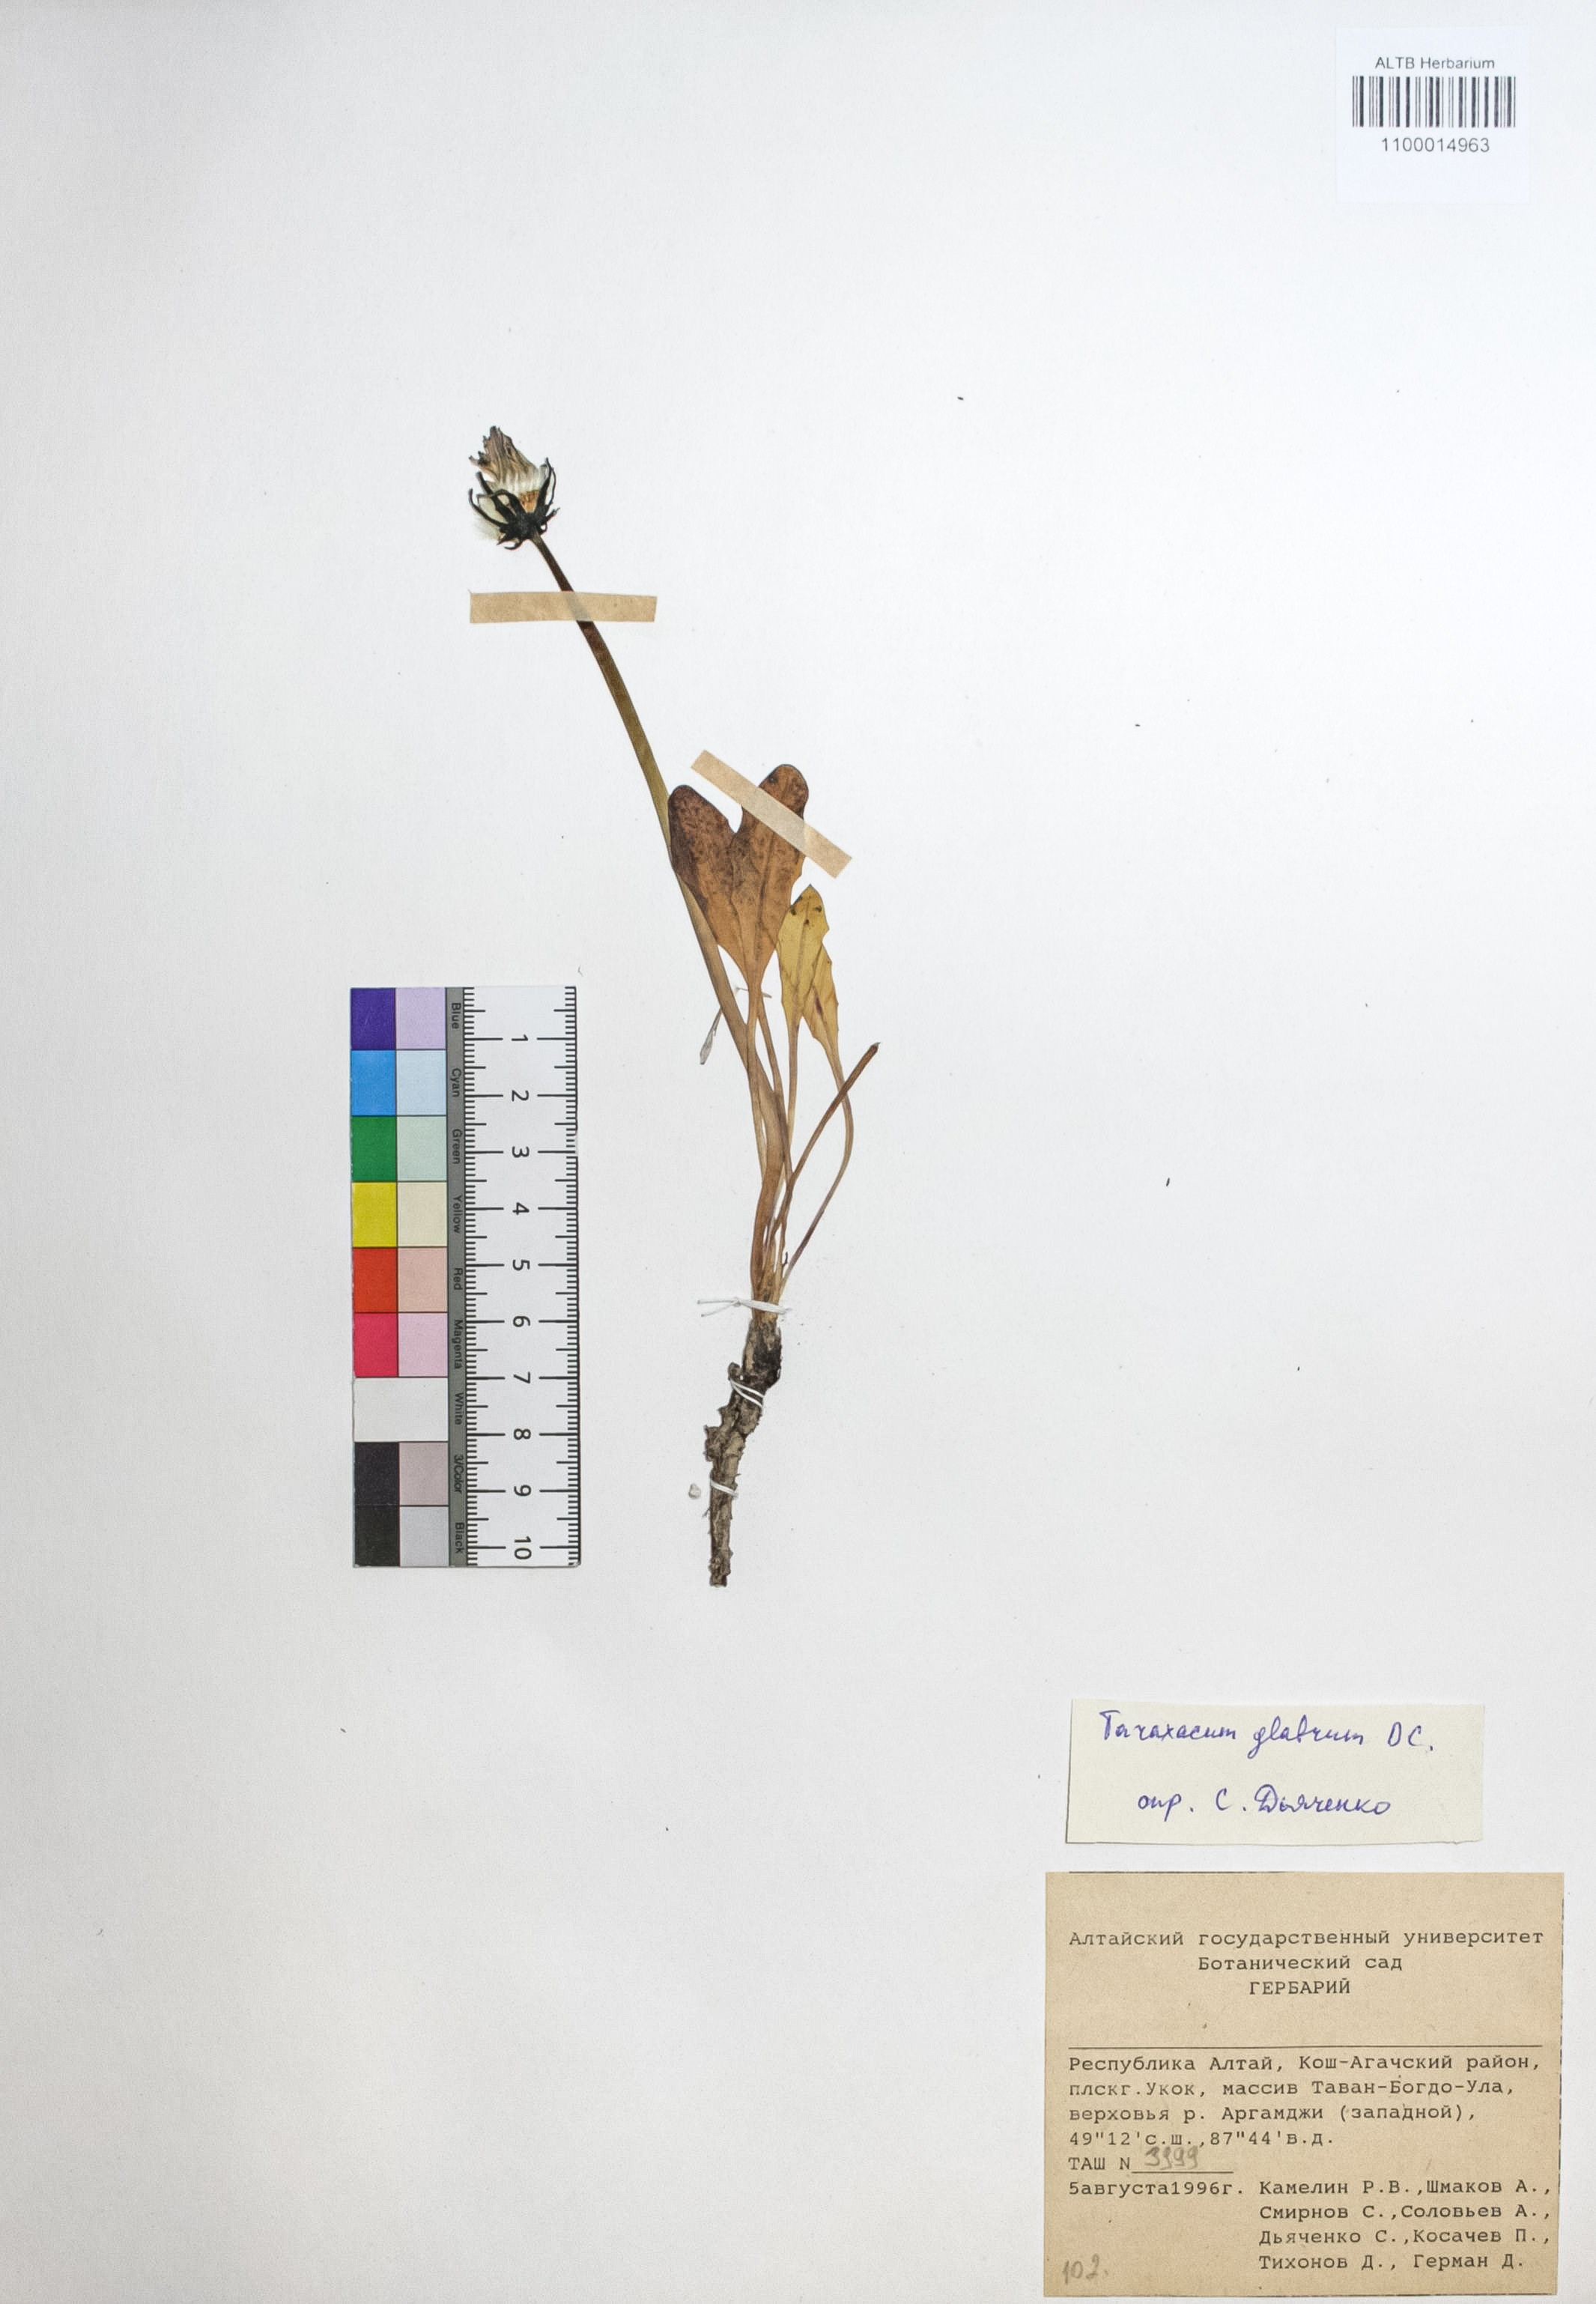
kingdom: Plantae
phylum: Tracheophyta
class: Magnoliopsida
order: Asterales
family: Asteraceae
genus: Taraxacum
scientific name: Taraxacum glabrum
